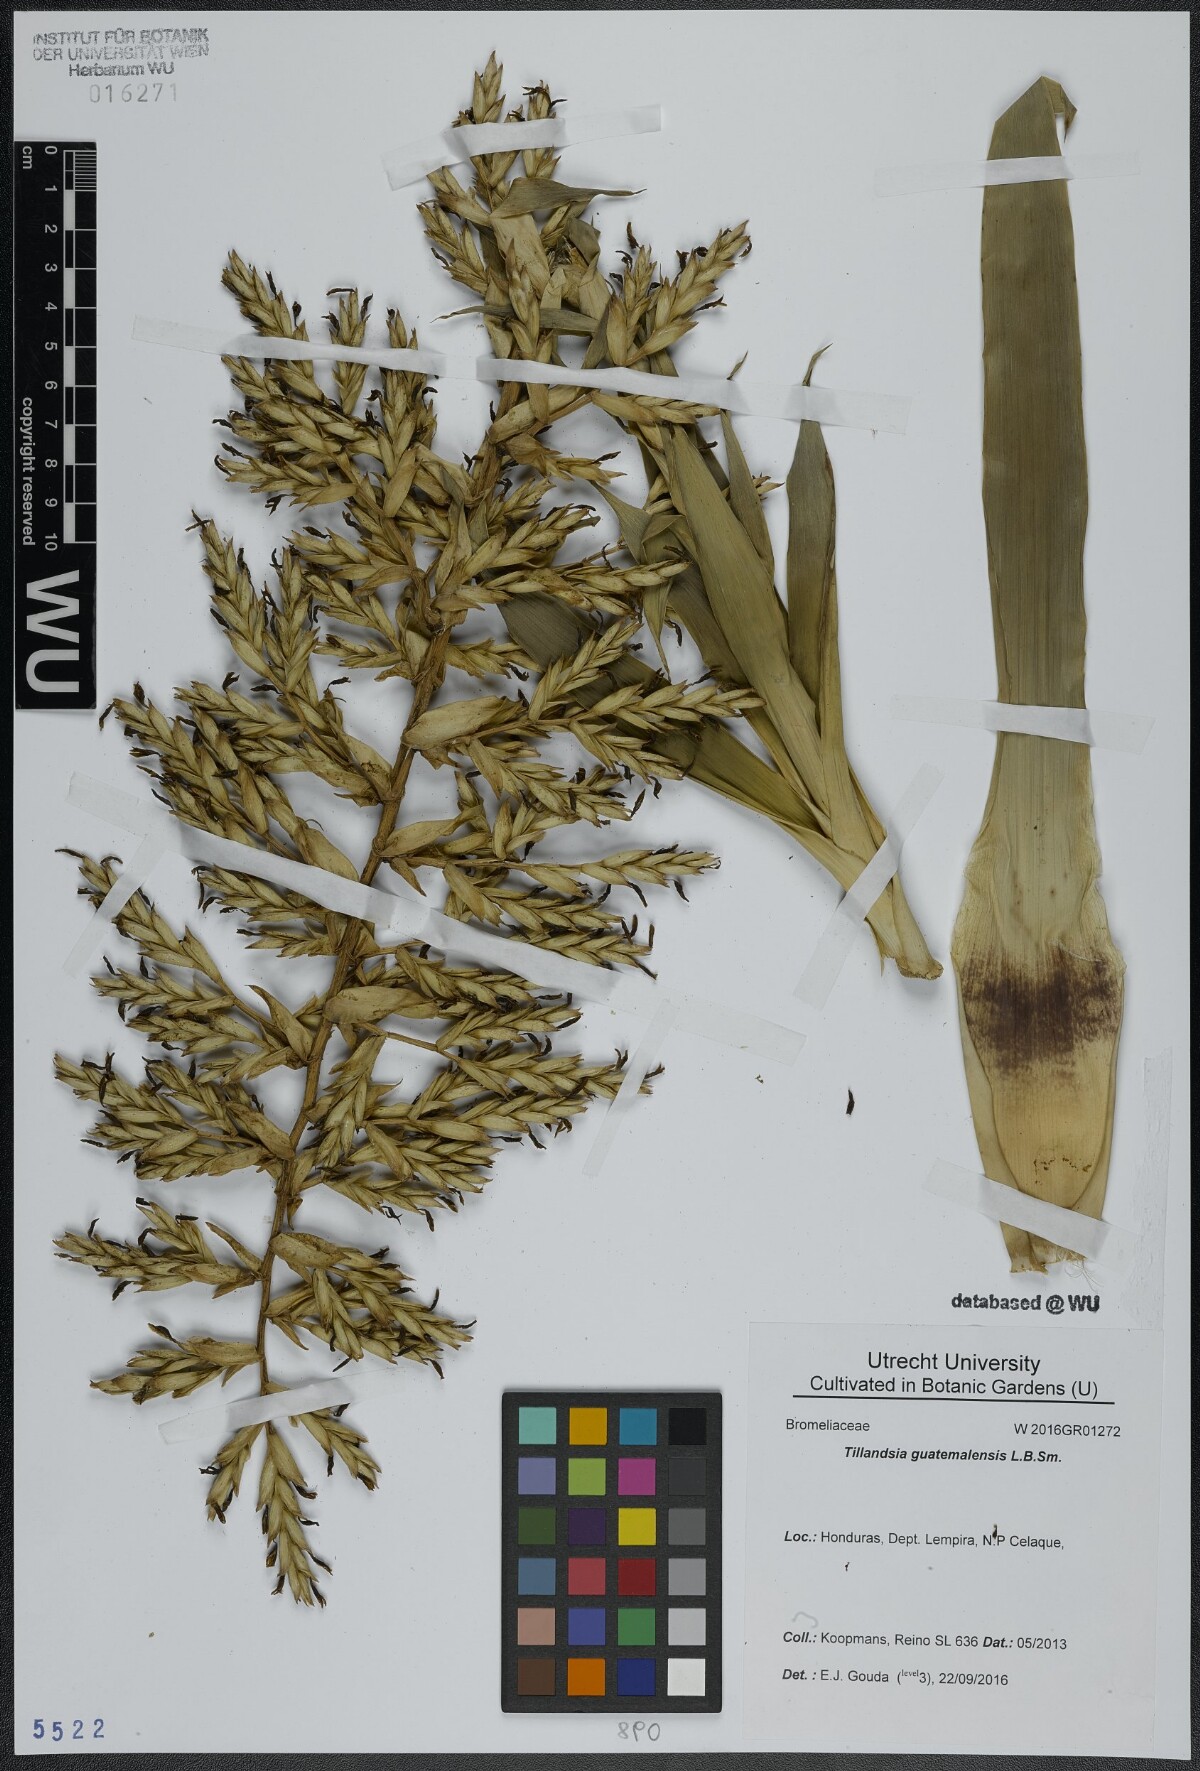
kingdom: Plantae
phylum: Tracheophyta
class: Liliopsida
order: Poales
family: Bromeliaceae
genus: Tillandsia
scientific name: Tillandsia guatemalensis
